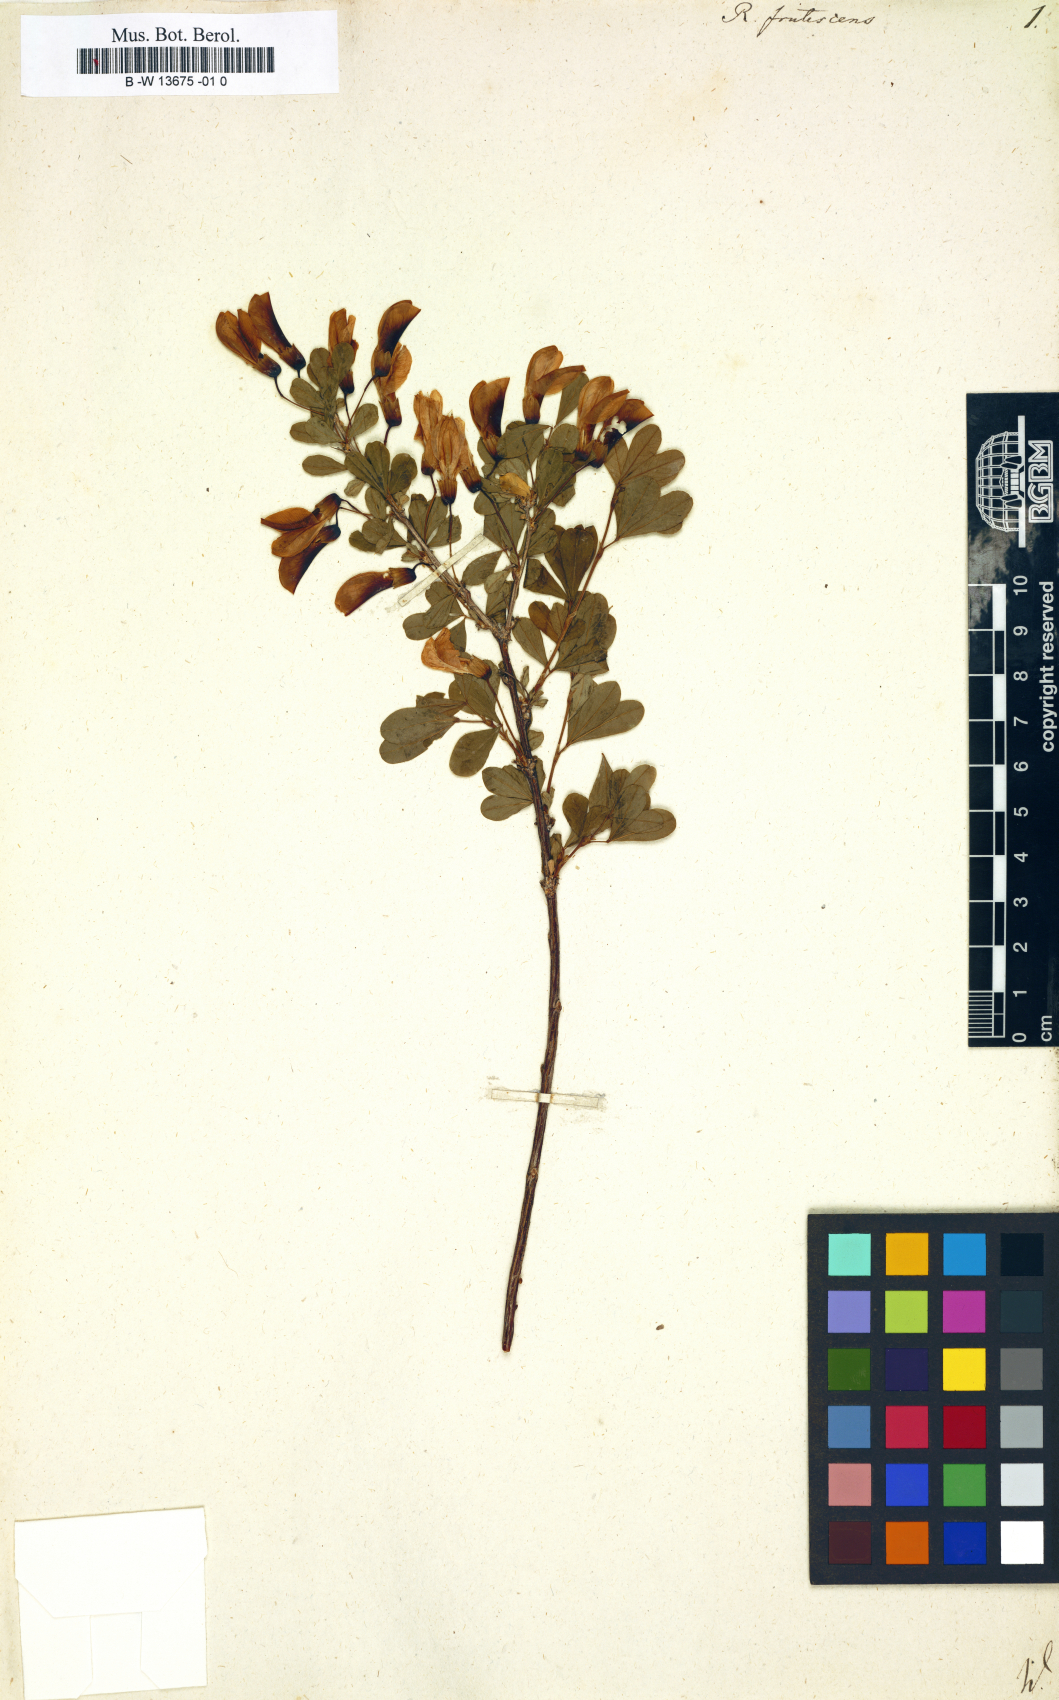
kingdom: Plantae
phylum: Tracheophyta
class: Magnoliopsida
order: Fabales
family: Fabaceae
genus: Caragana
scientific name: Caragana frutex
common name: Russian peashrub
